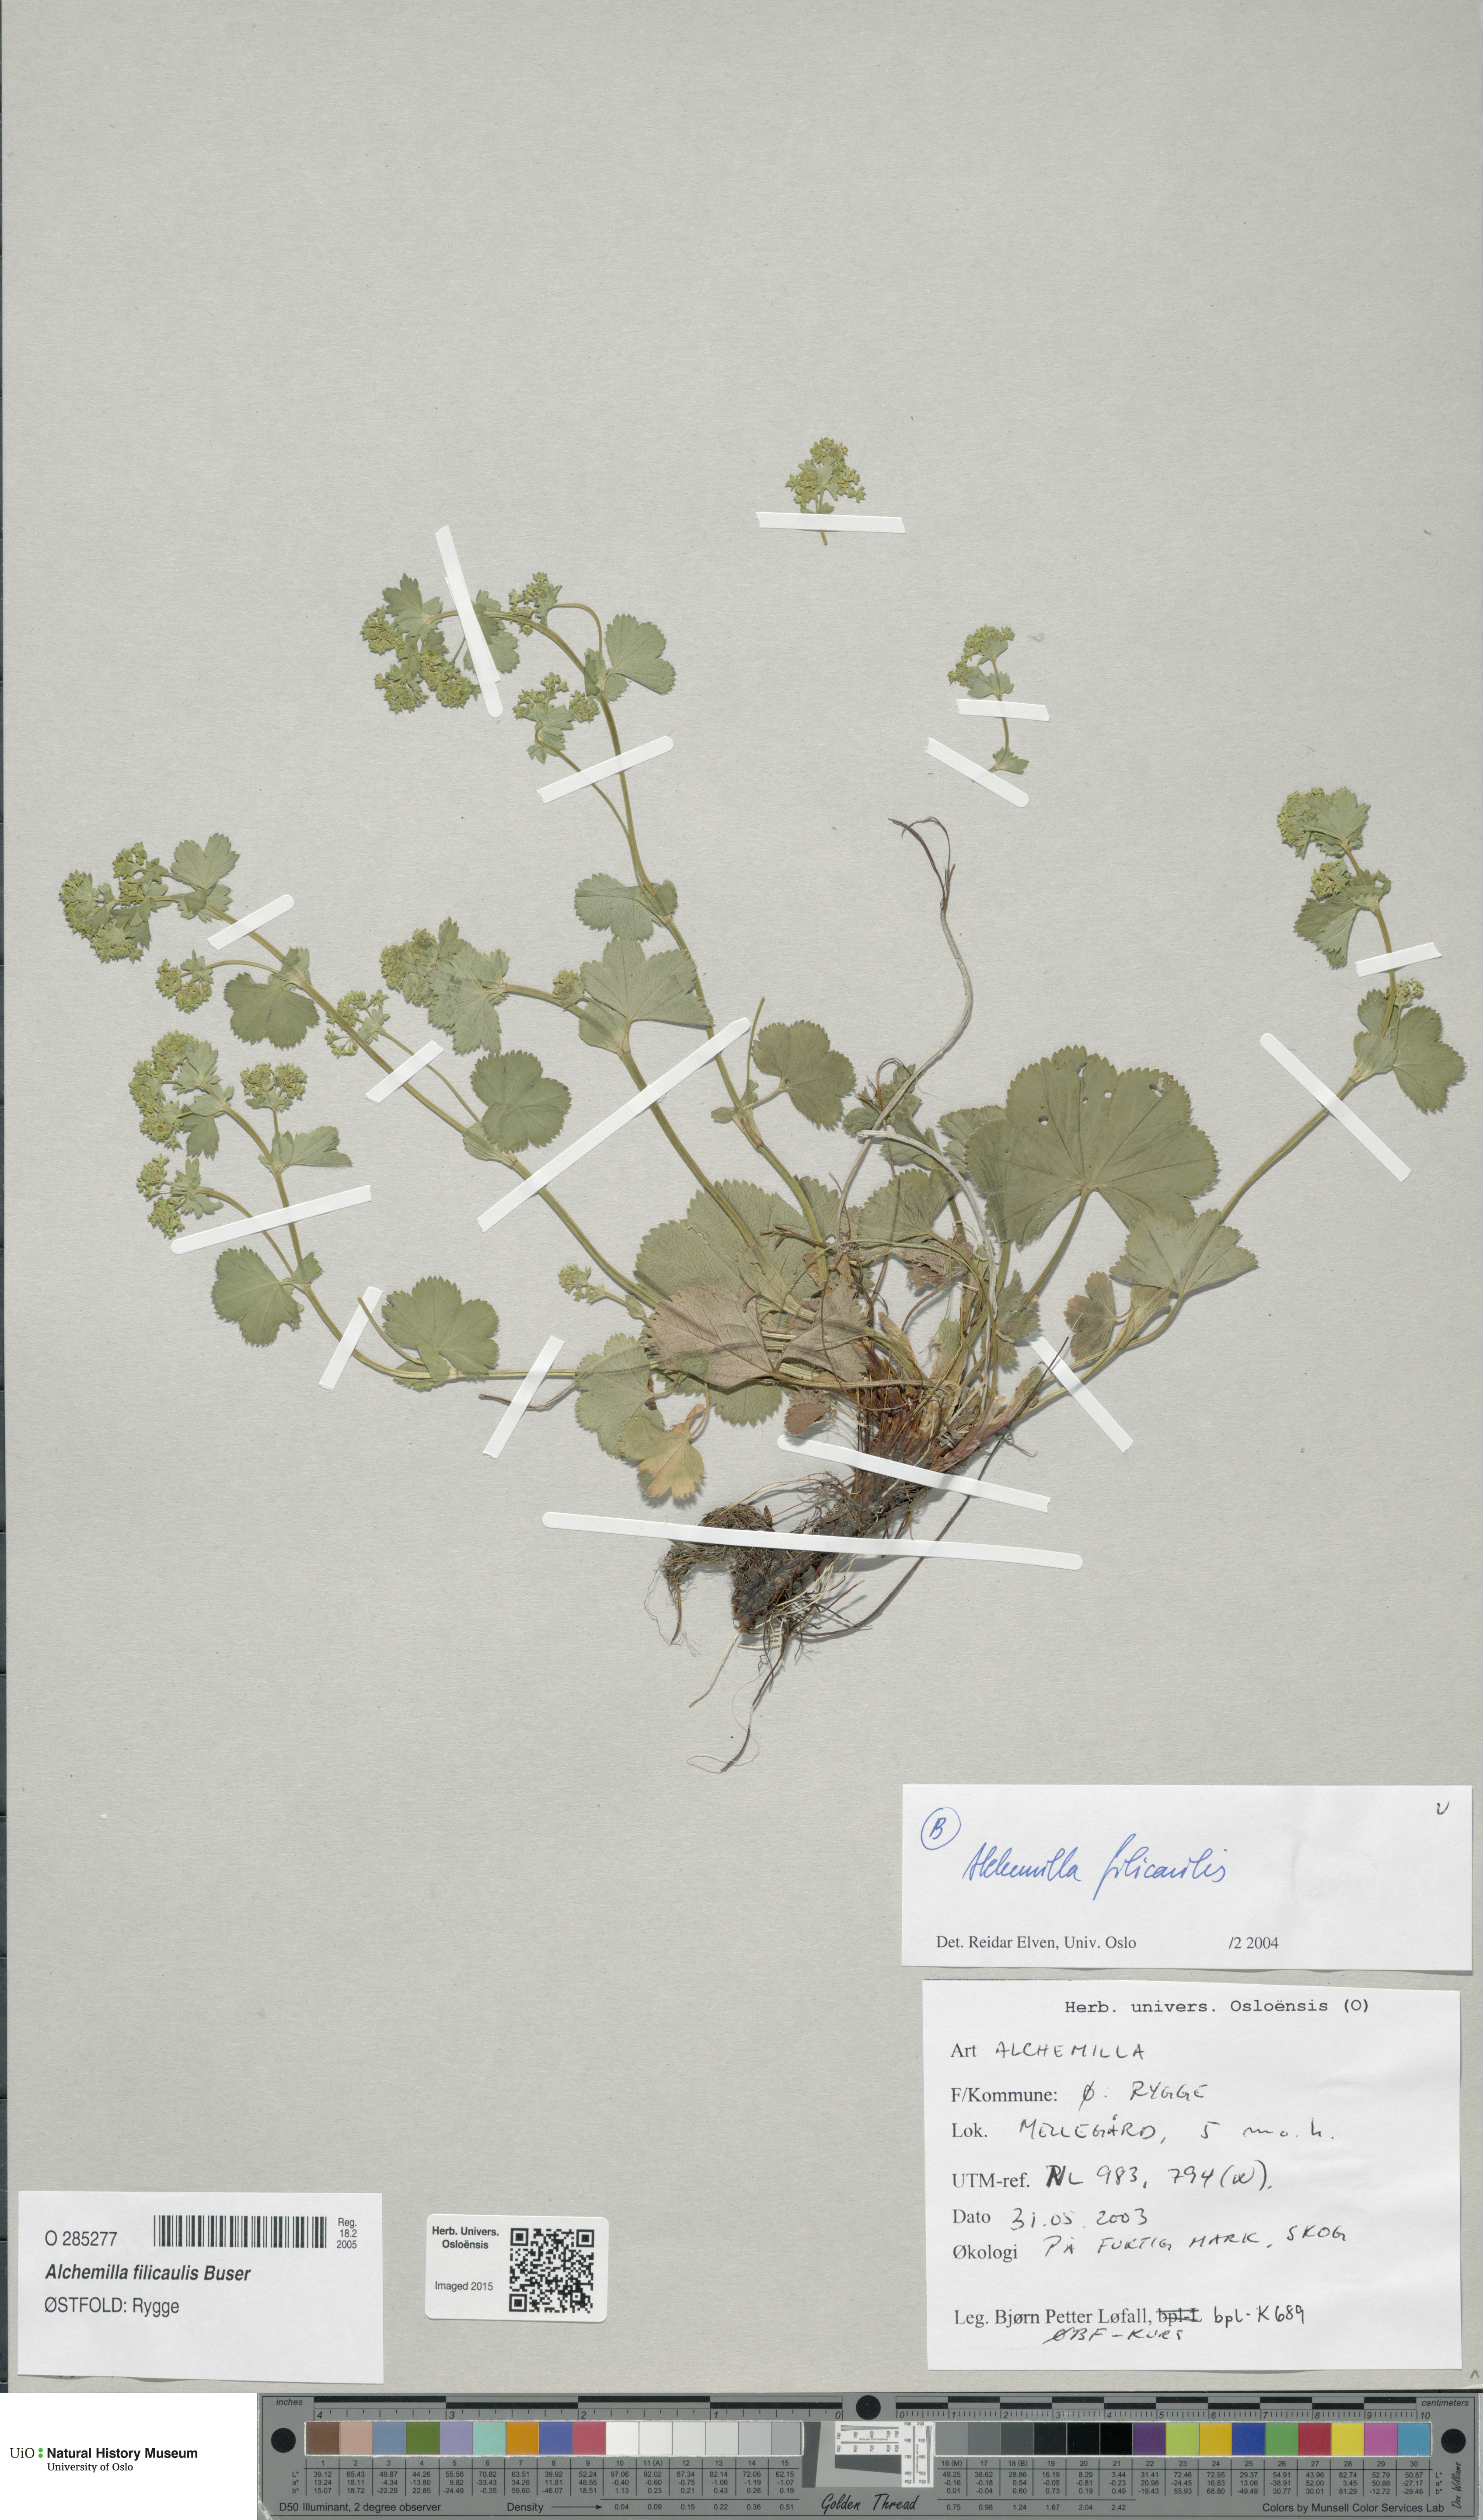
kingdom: Plantae
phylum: Tracheophyta
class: Magnoliopsida
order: Rosales
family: Rosaceae
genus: Alchemilla
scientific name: Alchemilla filicaulis
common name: Hairy lady's-mantle
